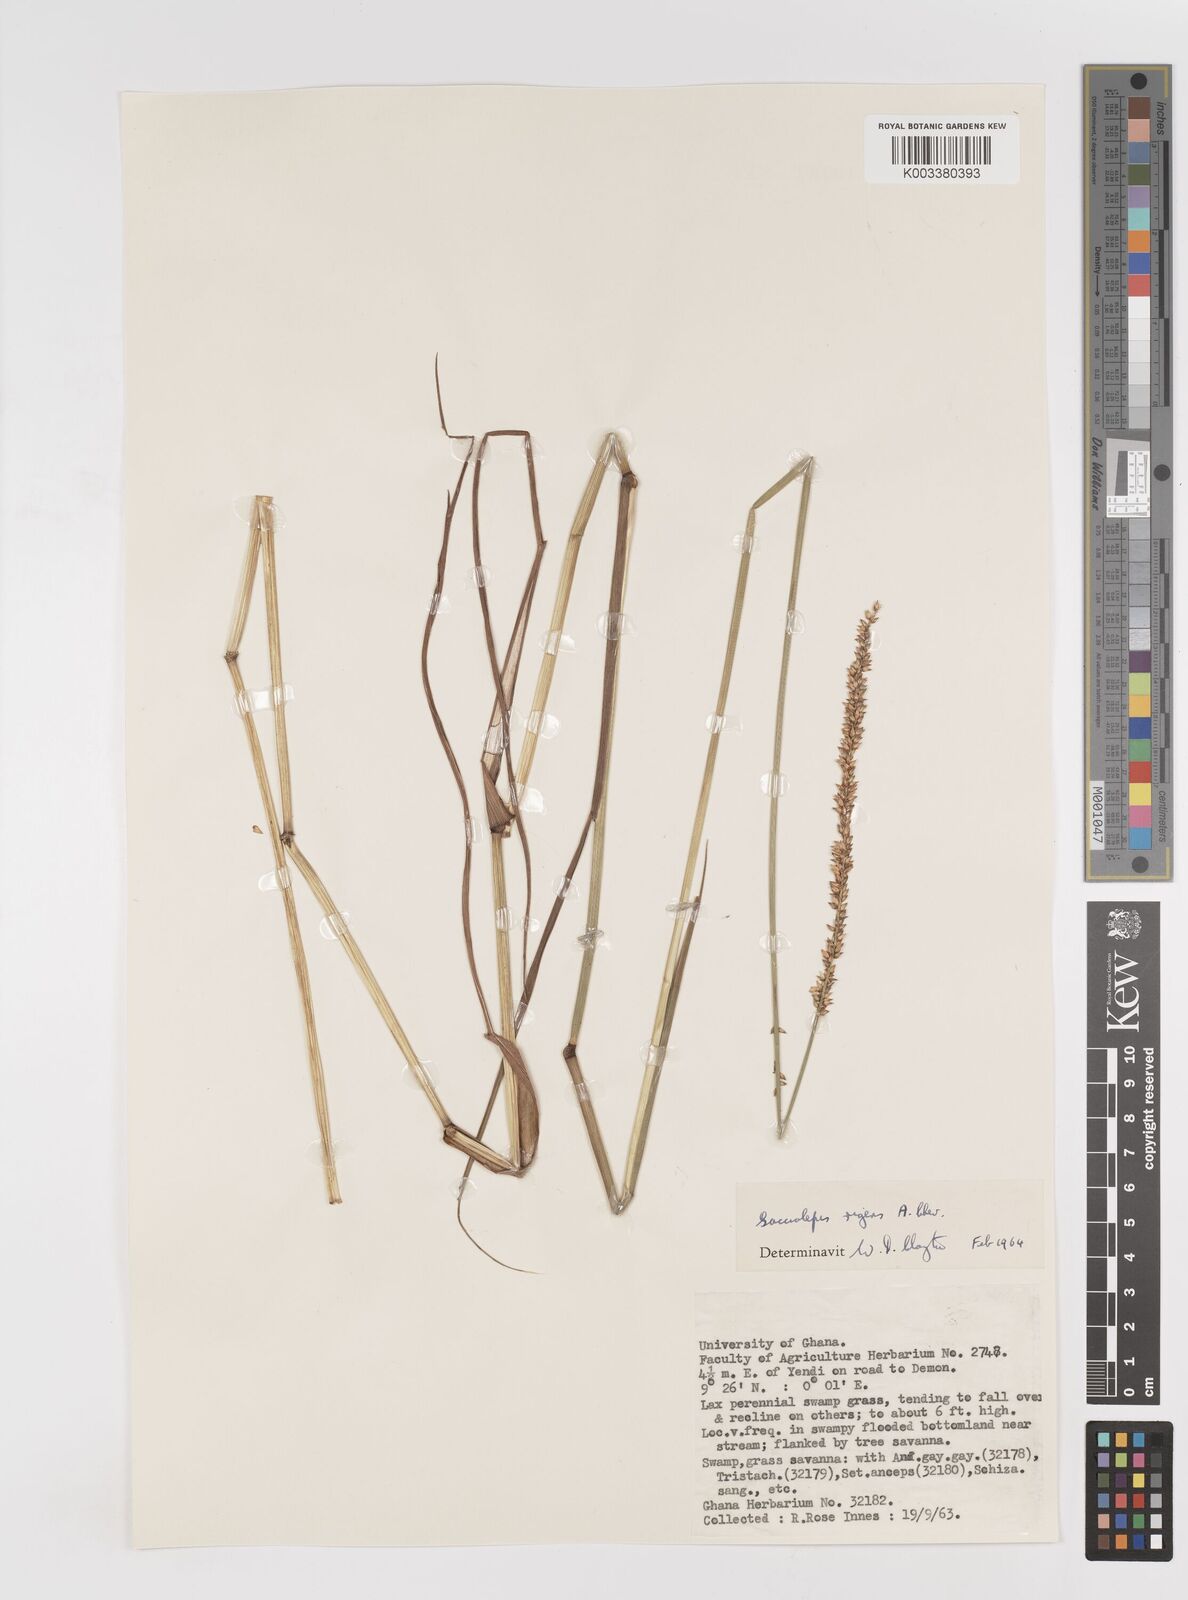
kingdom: Plantae
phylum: Tracheophyta
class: Liliopsida
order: Poales
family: Poaceae
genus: Sacciolepis
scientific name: Sacciolepis leptorrhachis
